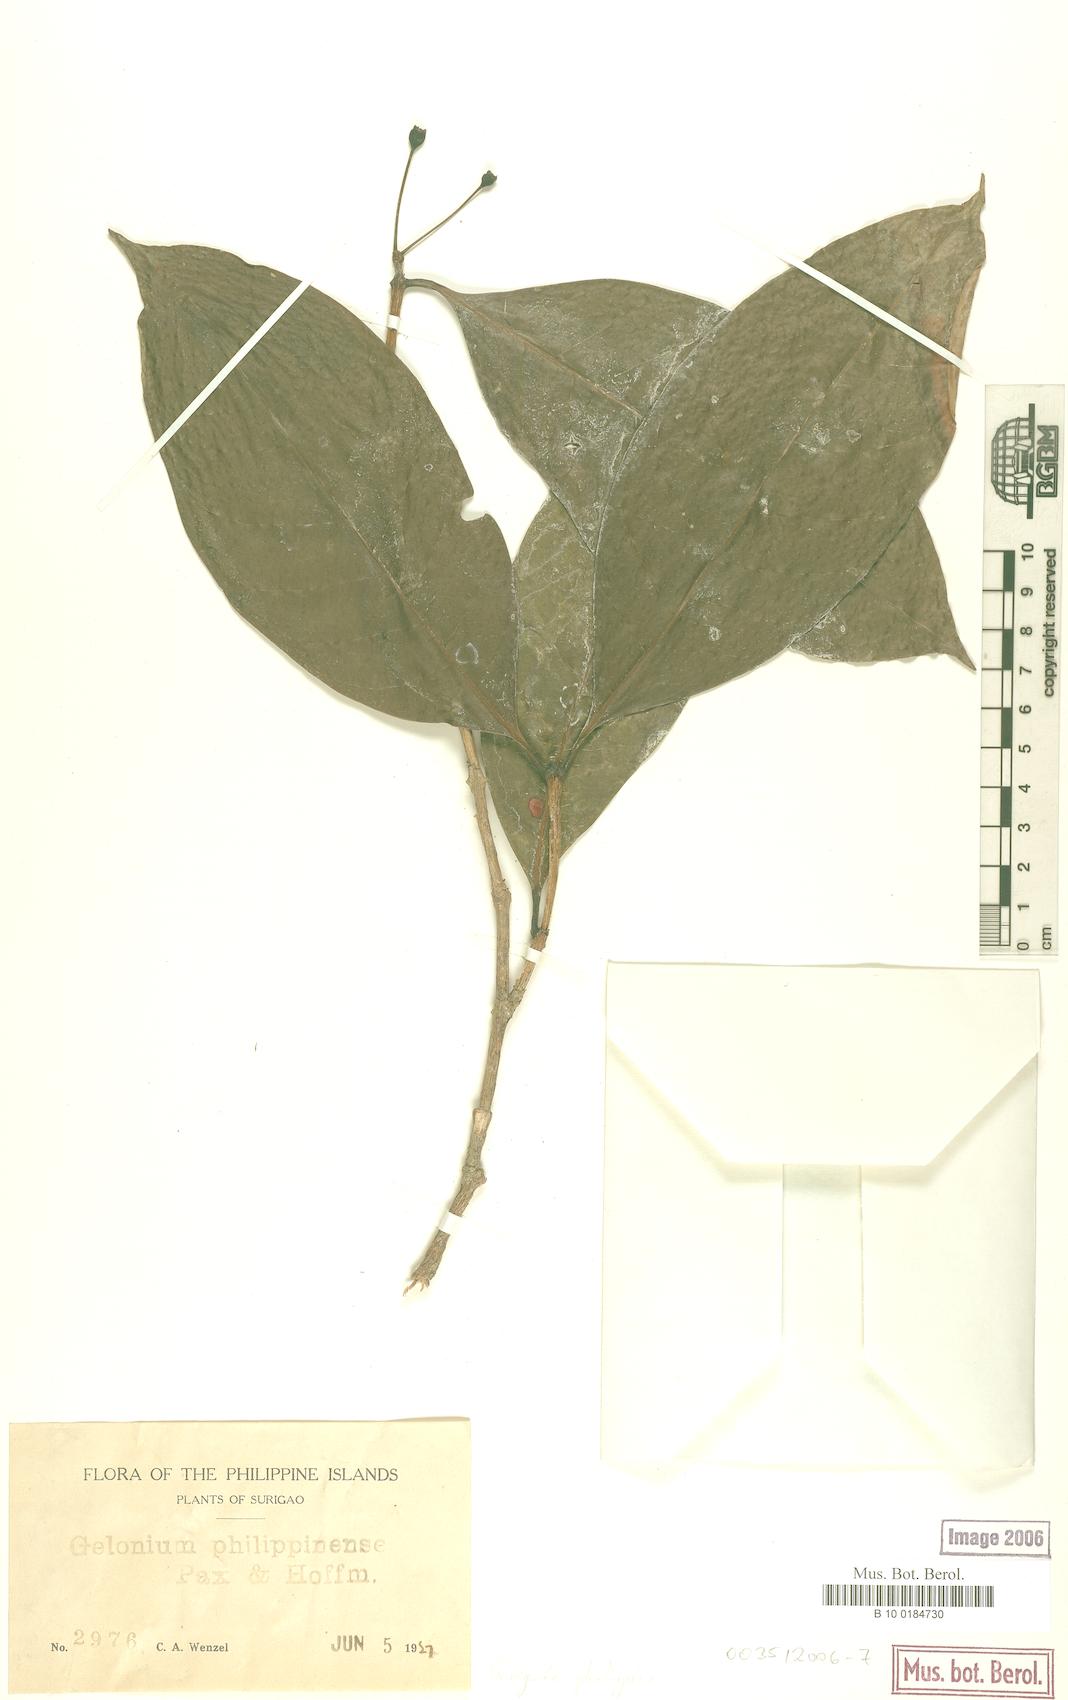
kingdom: Plantae
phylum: Tracheophyta
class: Magnoliopsida
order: Malpighiales
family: Euphorbiaceae
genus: Suregada
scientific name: Suregada glomerulata
